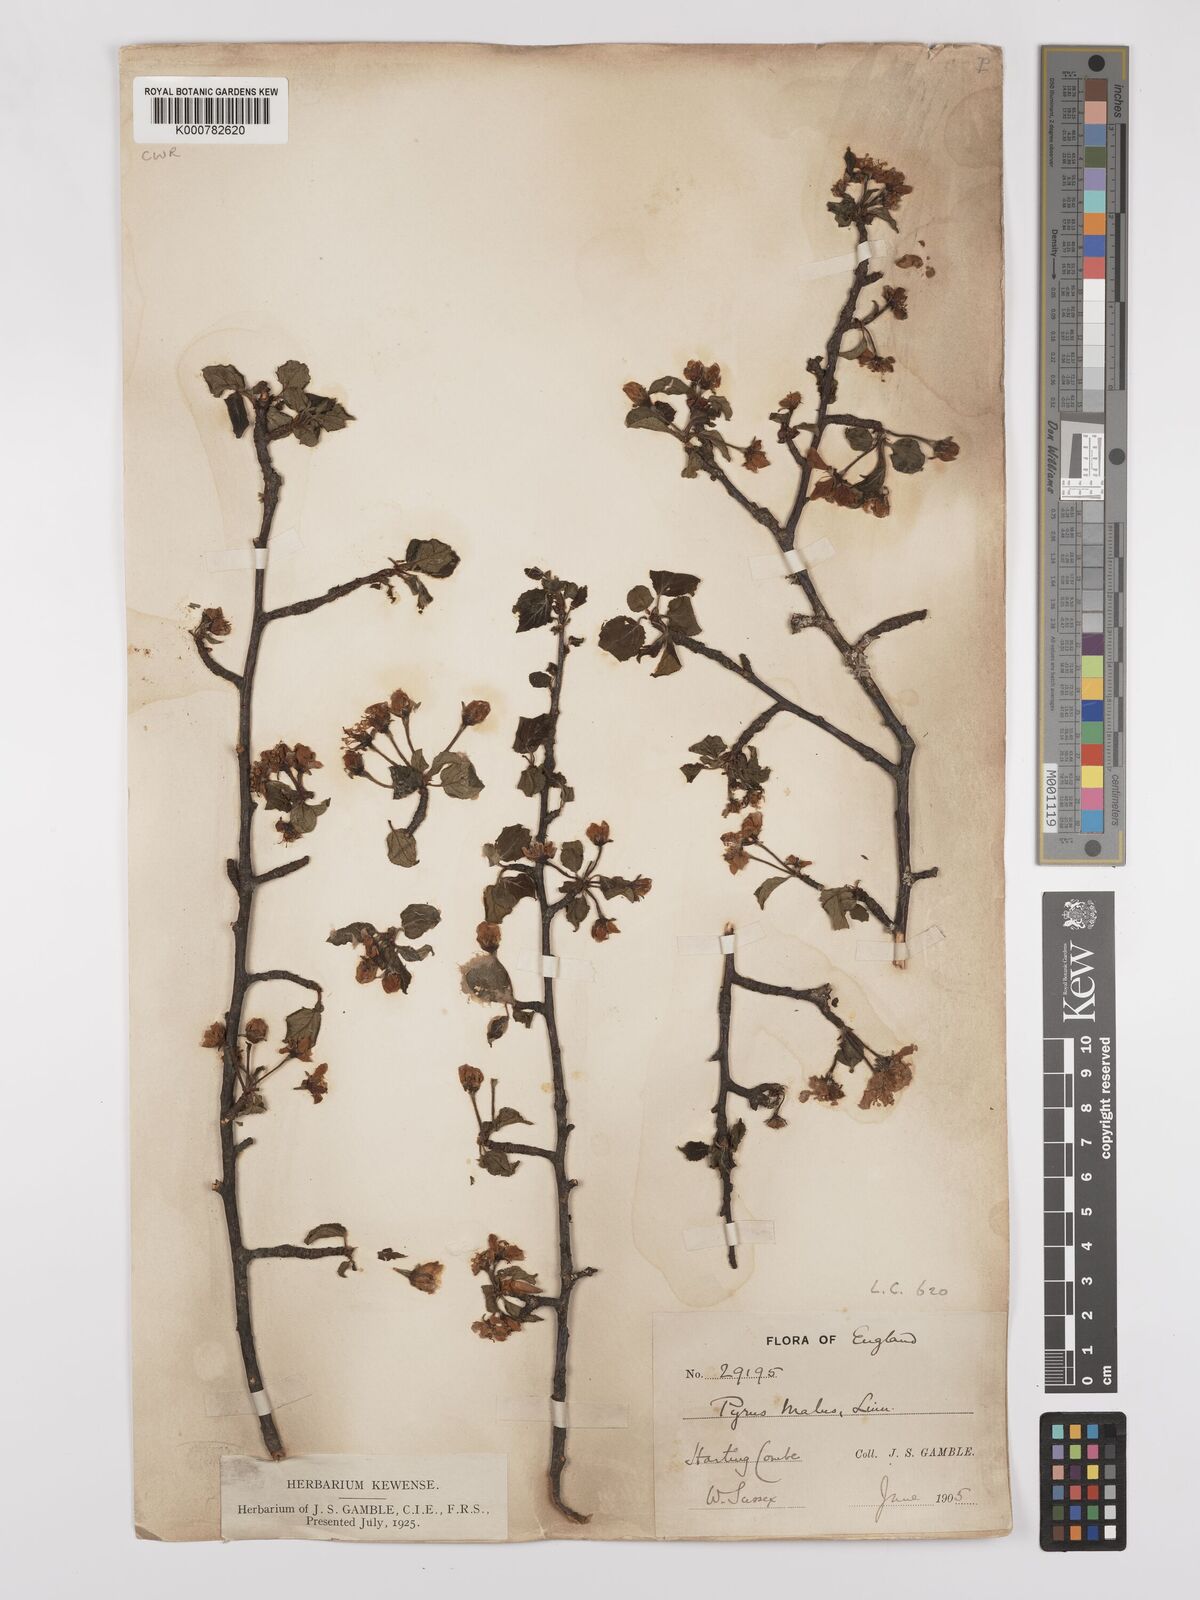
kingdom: Plantae
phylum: Tracheophyta
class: Magnoliopsida
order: Rosales
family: Rosaceae
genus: Malus
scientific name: Malus domestica
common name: Apple
